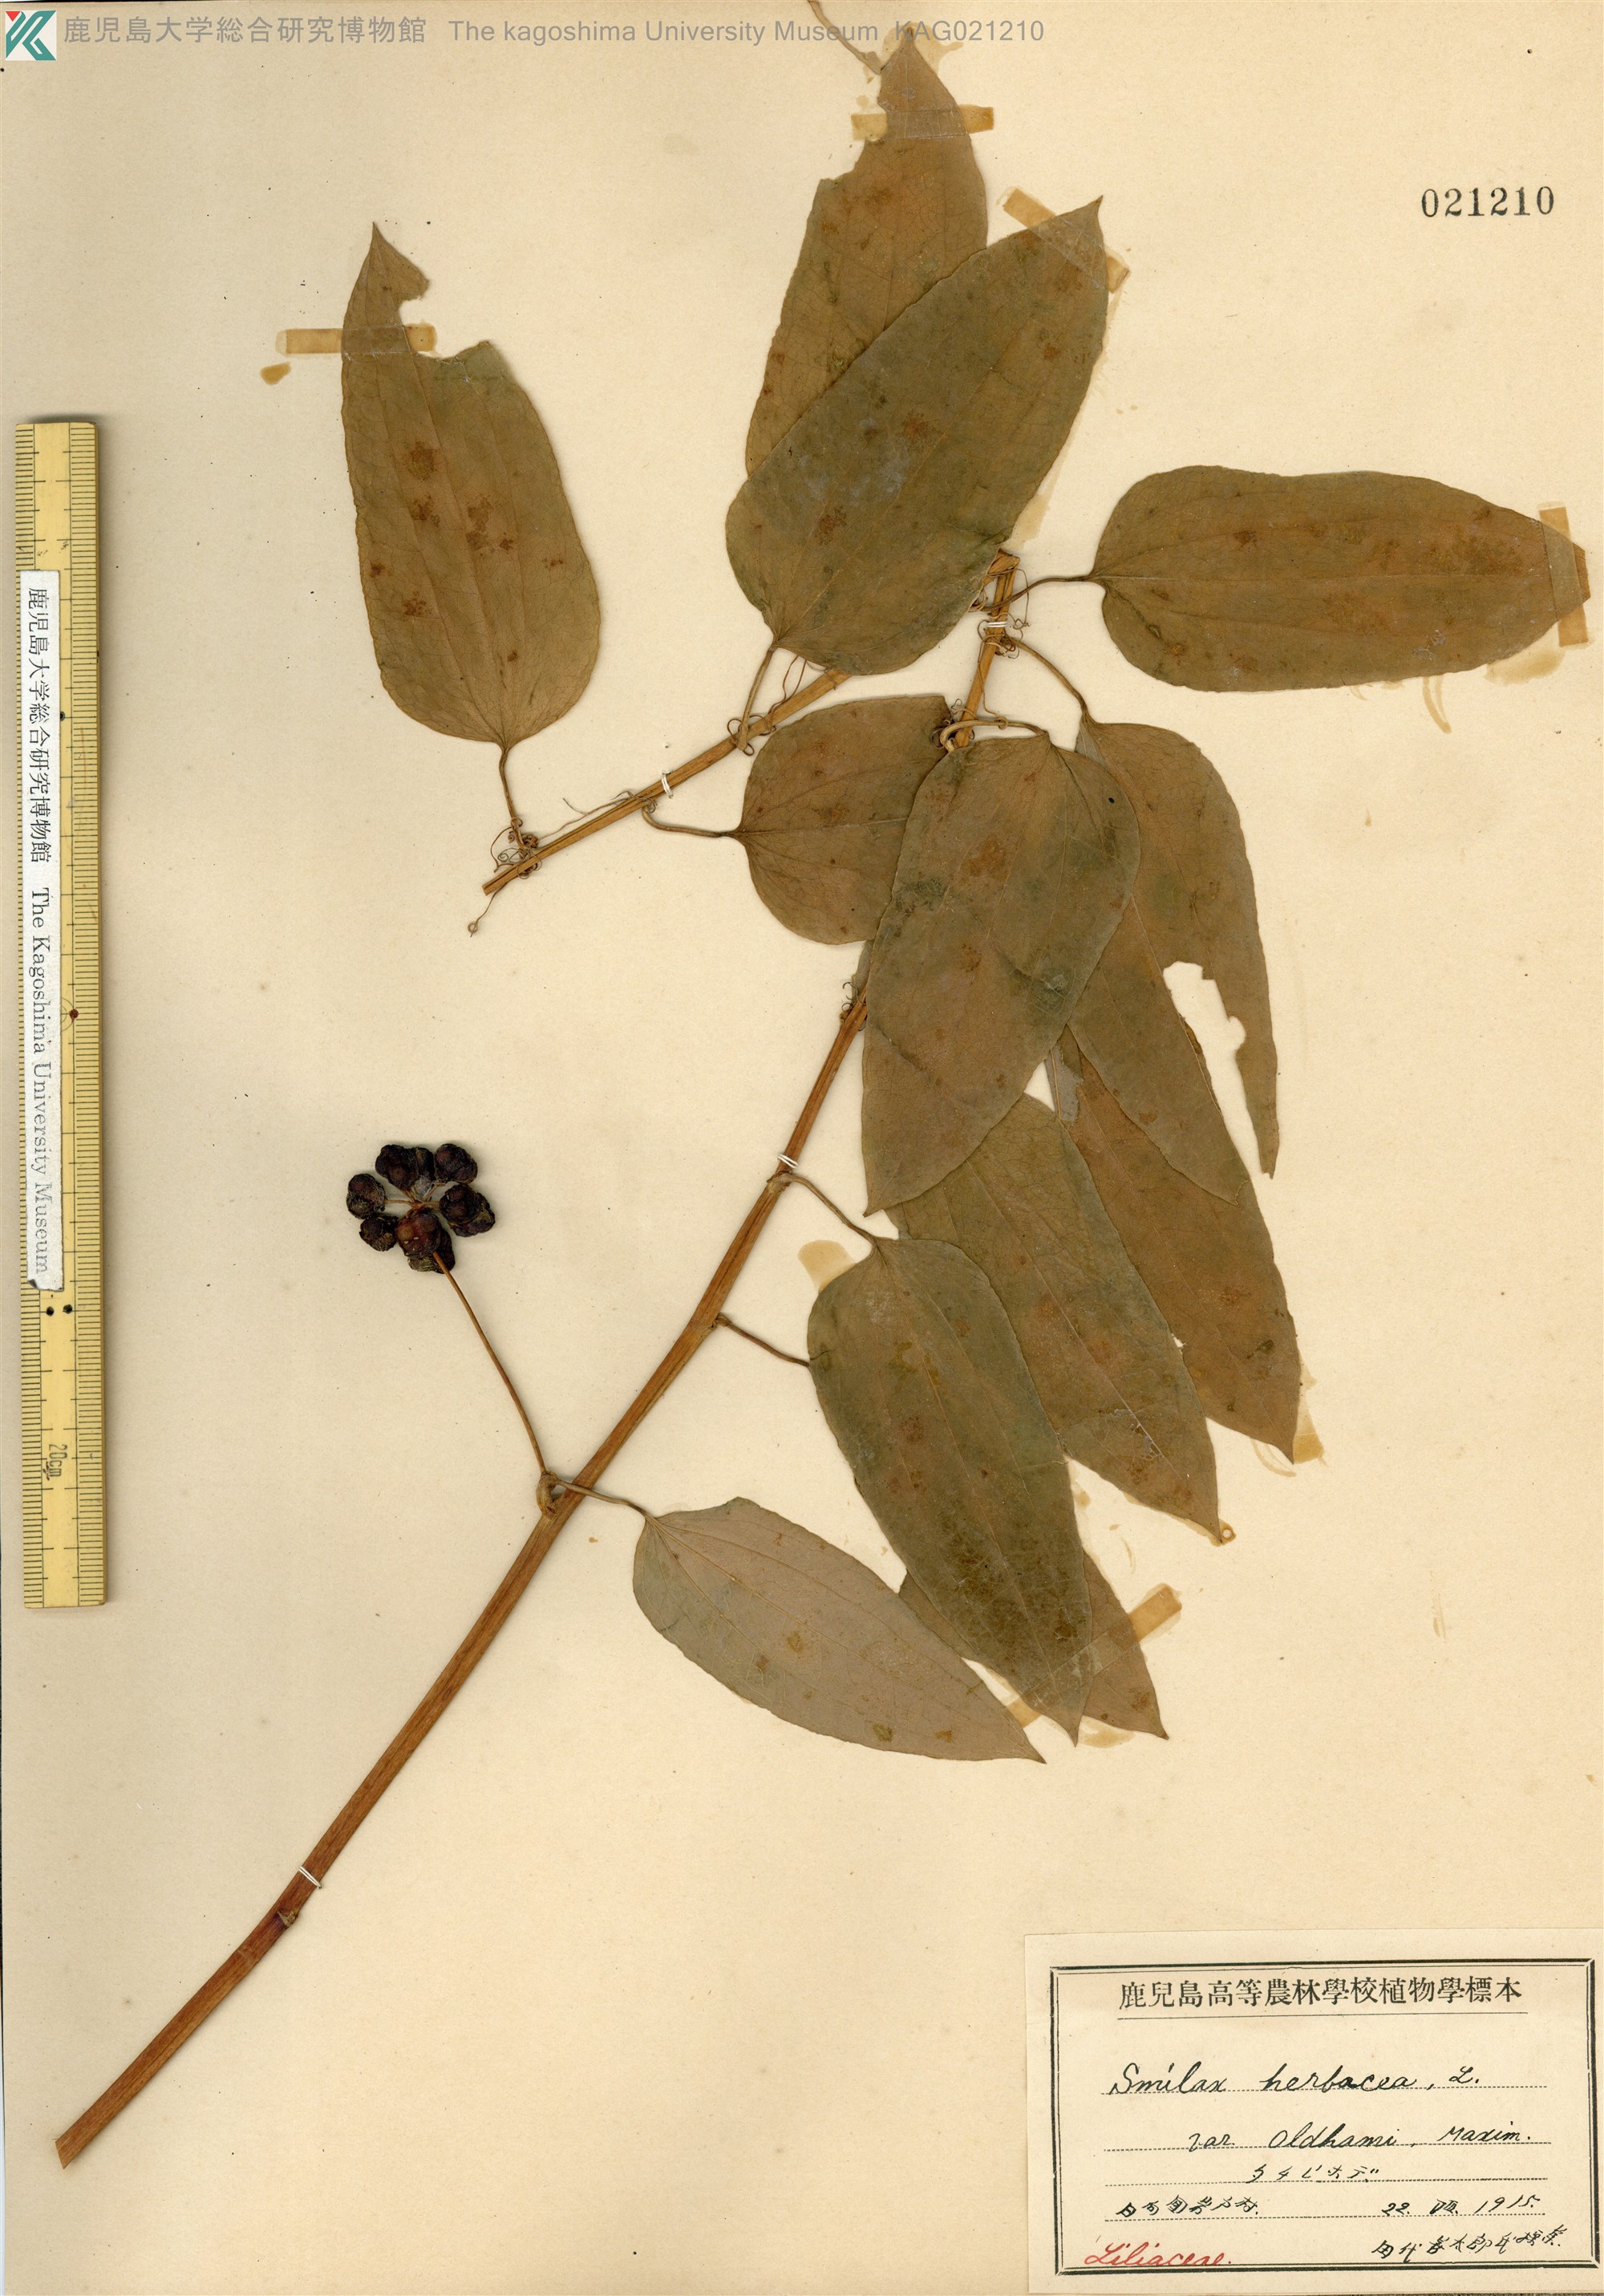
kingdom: Plantae
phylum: Tracheophyta
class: Liliopsida
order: Liliales
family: Smilacaceae
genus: Smilax
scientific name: Smilax nipponica
